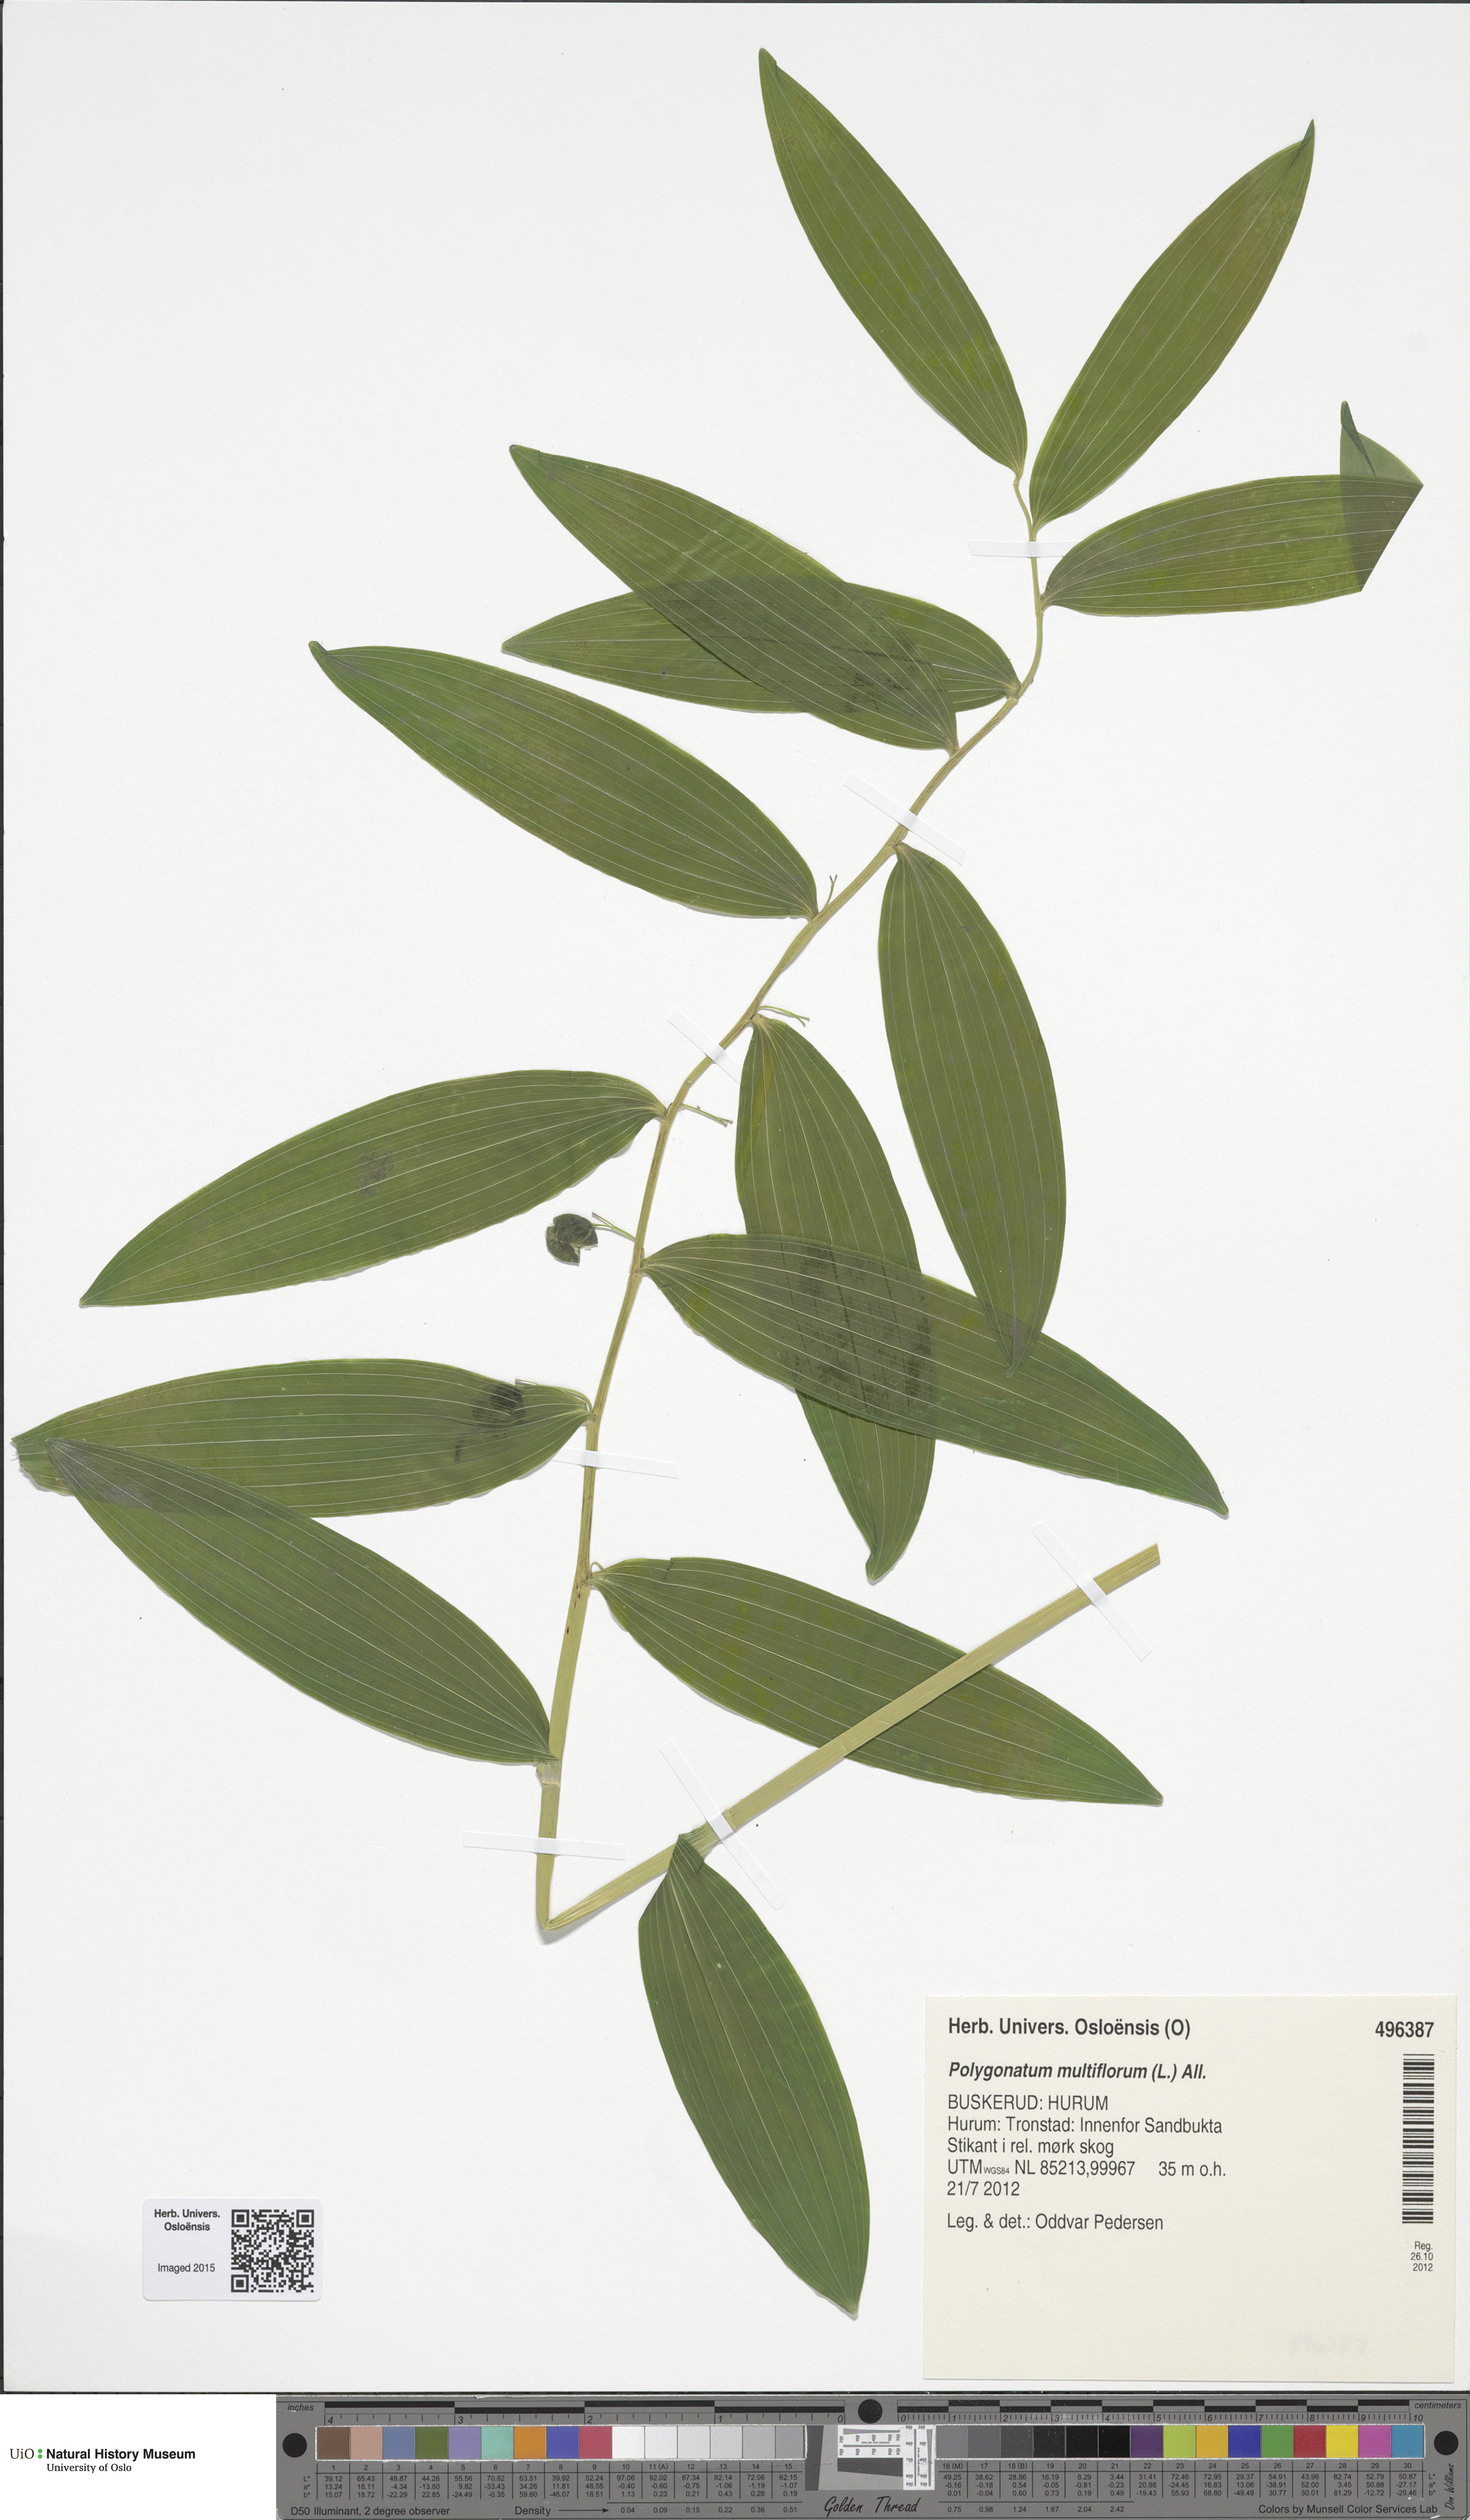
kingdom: Plantae
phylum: Tracheophyta
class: Liliopsida
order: Asparagales
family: Asparagaceae
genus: Polygonatum
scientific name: Polygonatum multiflorum
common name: Solomon's-seal
